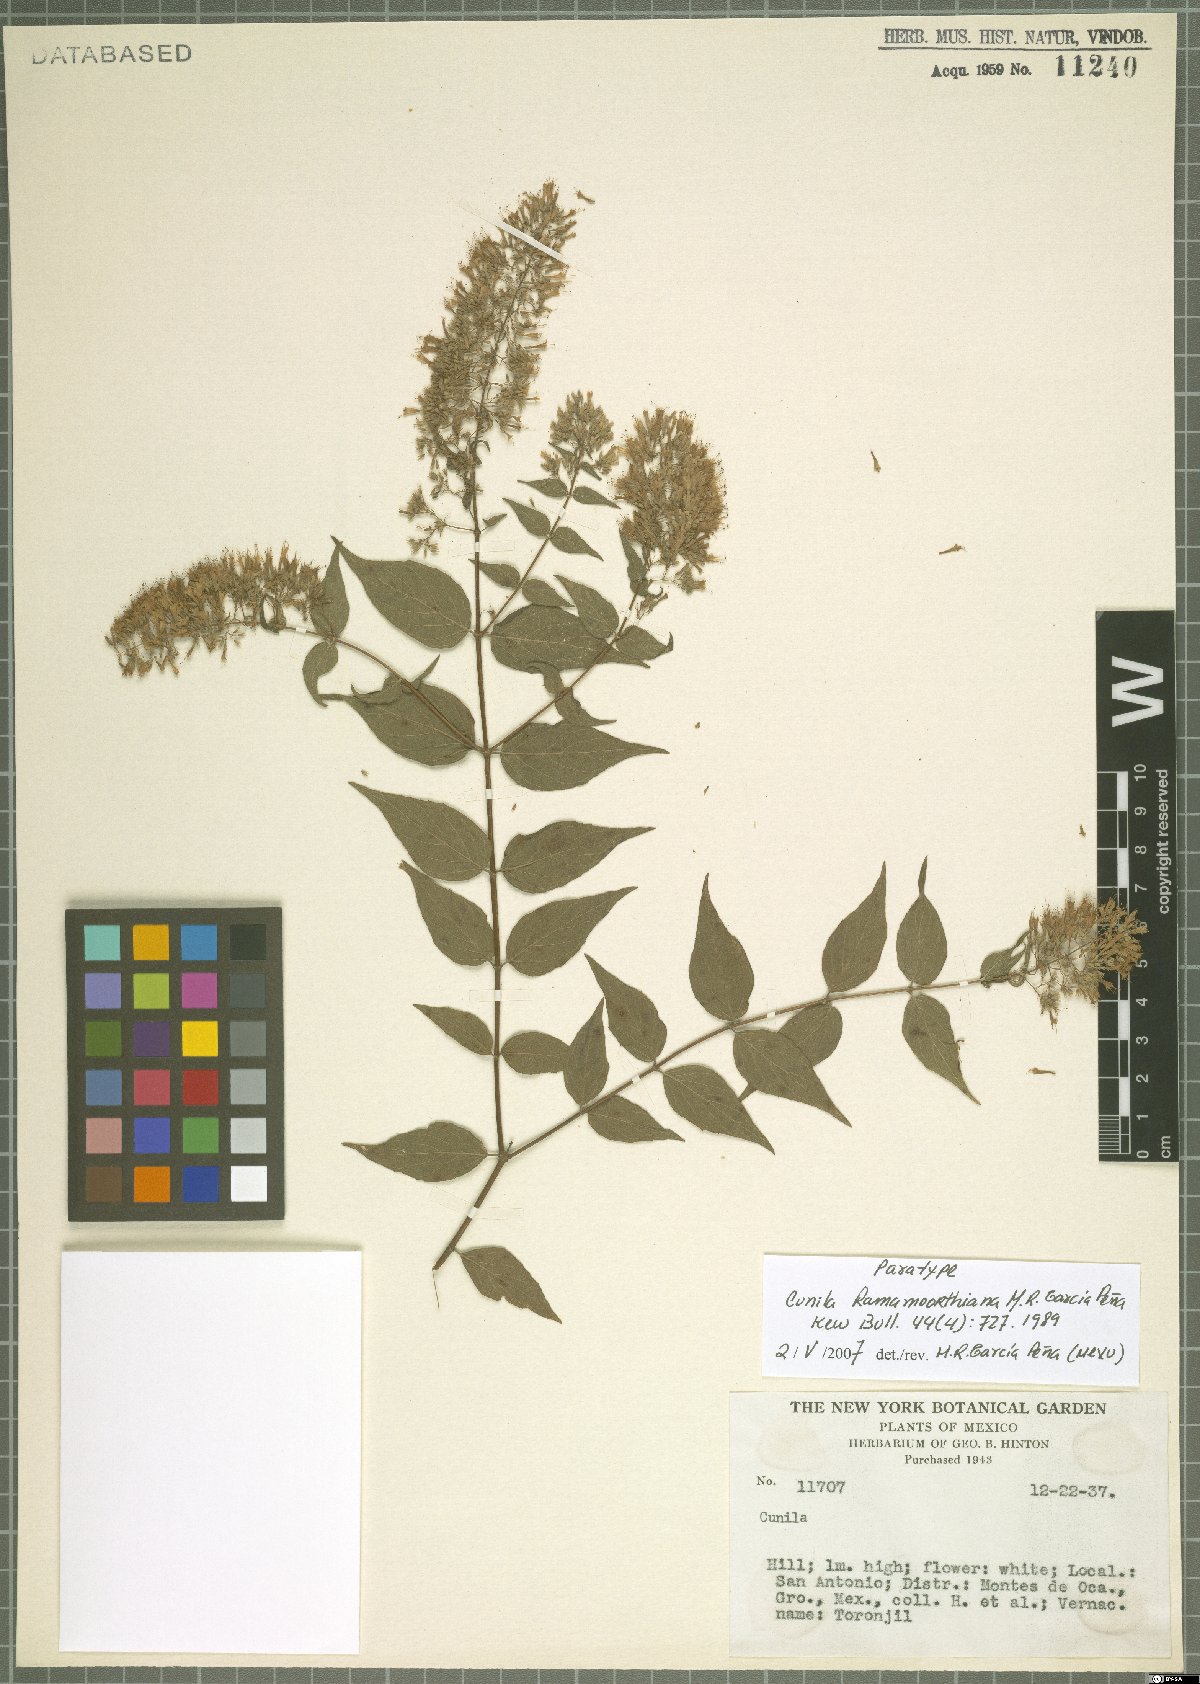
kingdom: Plantae
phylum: Tracheophyta
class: Magnoliopsida
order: Lamiales
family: Lamiaceae
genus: Cunila
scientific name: Cunila ramamoorthiana
